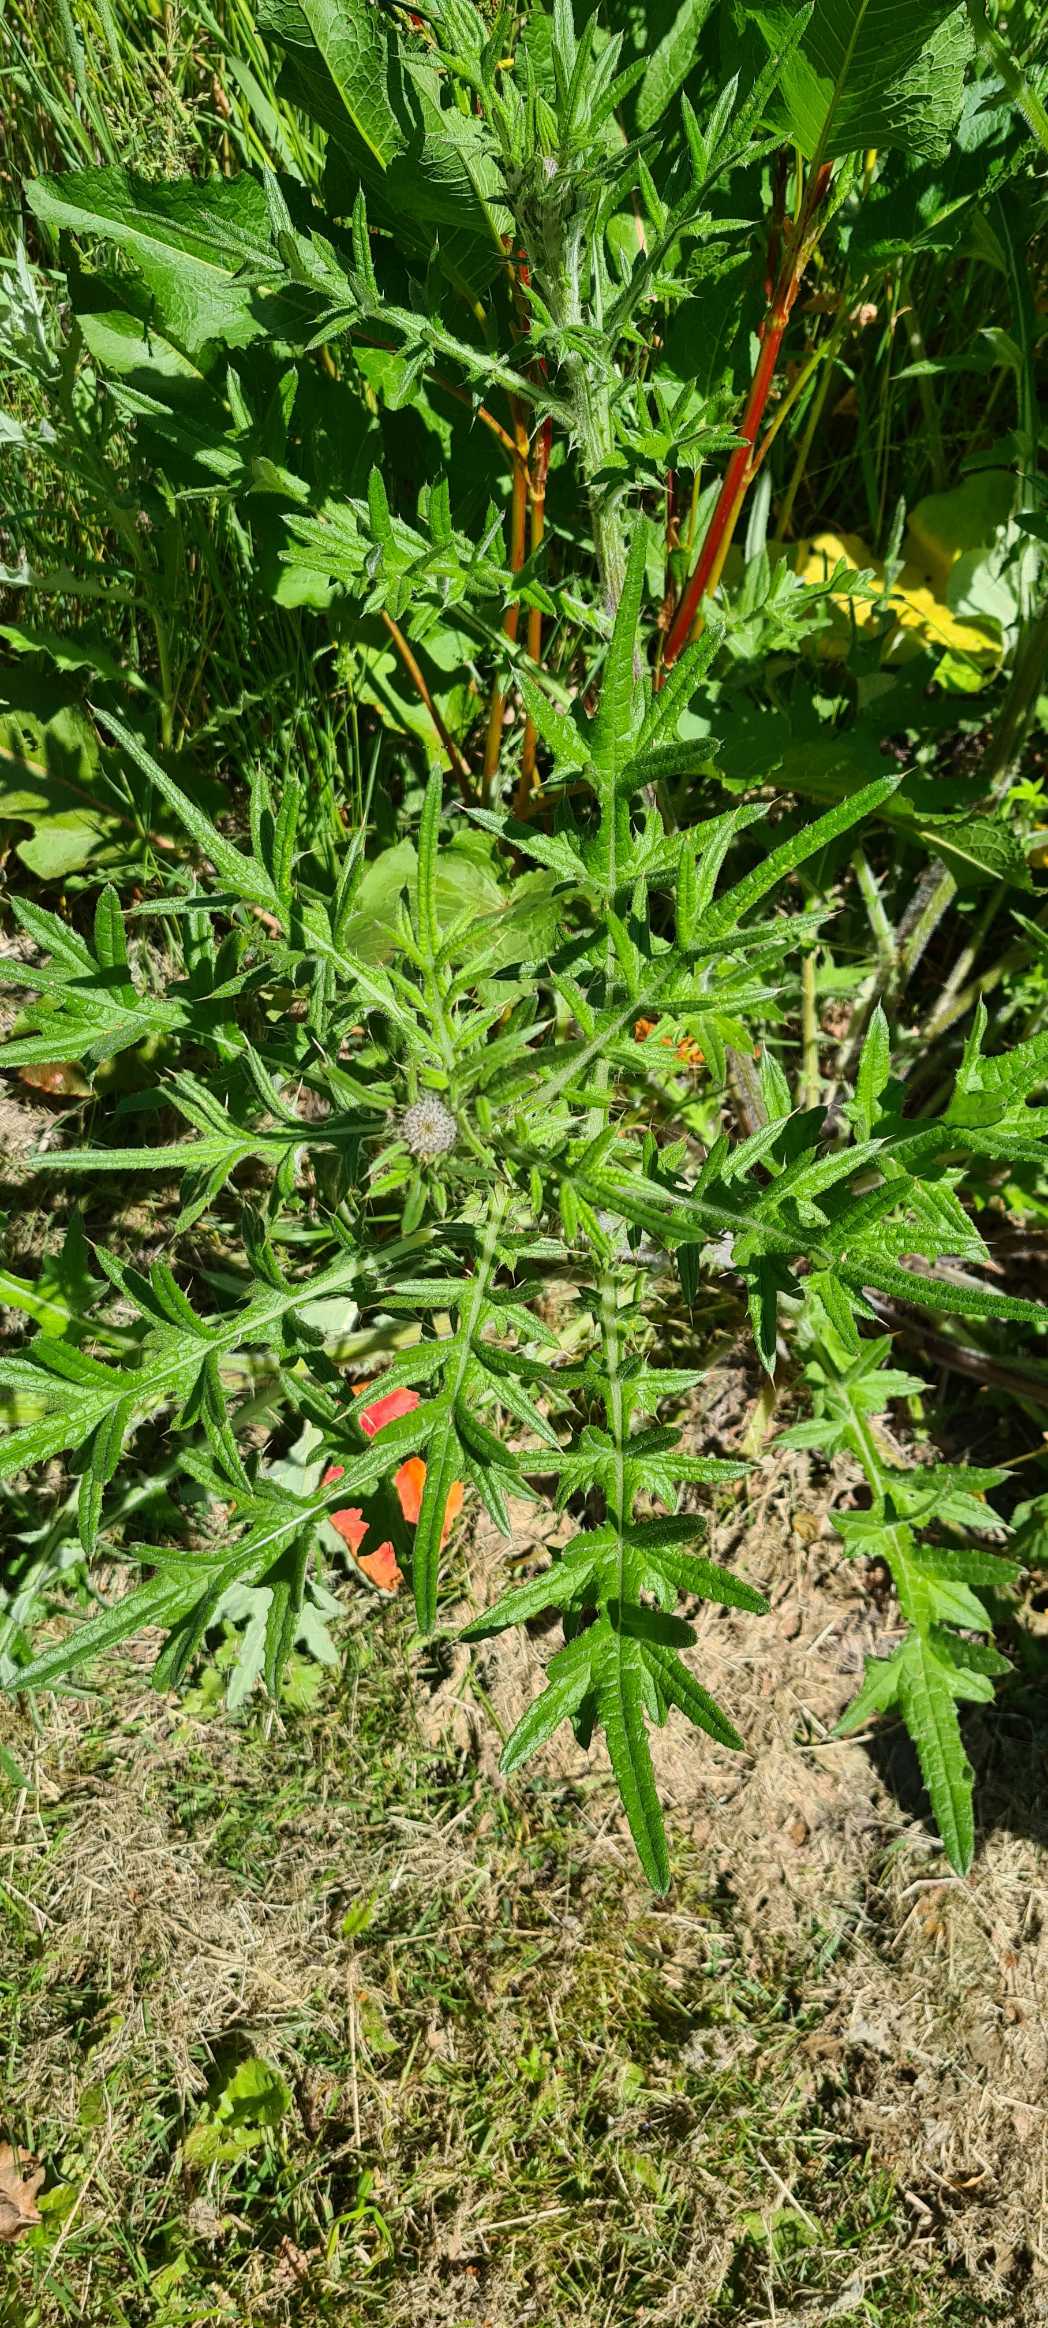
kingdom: Plantae
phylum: Tracheophyta
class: Magnoliopsida
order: Asterales
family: Asteraceae
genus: Cirsium
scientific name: Cirsium vulgare
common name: Horse-tidsel
